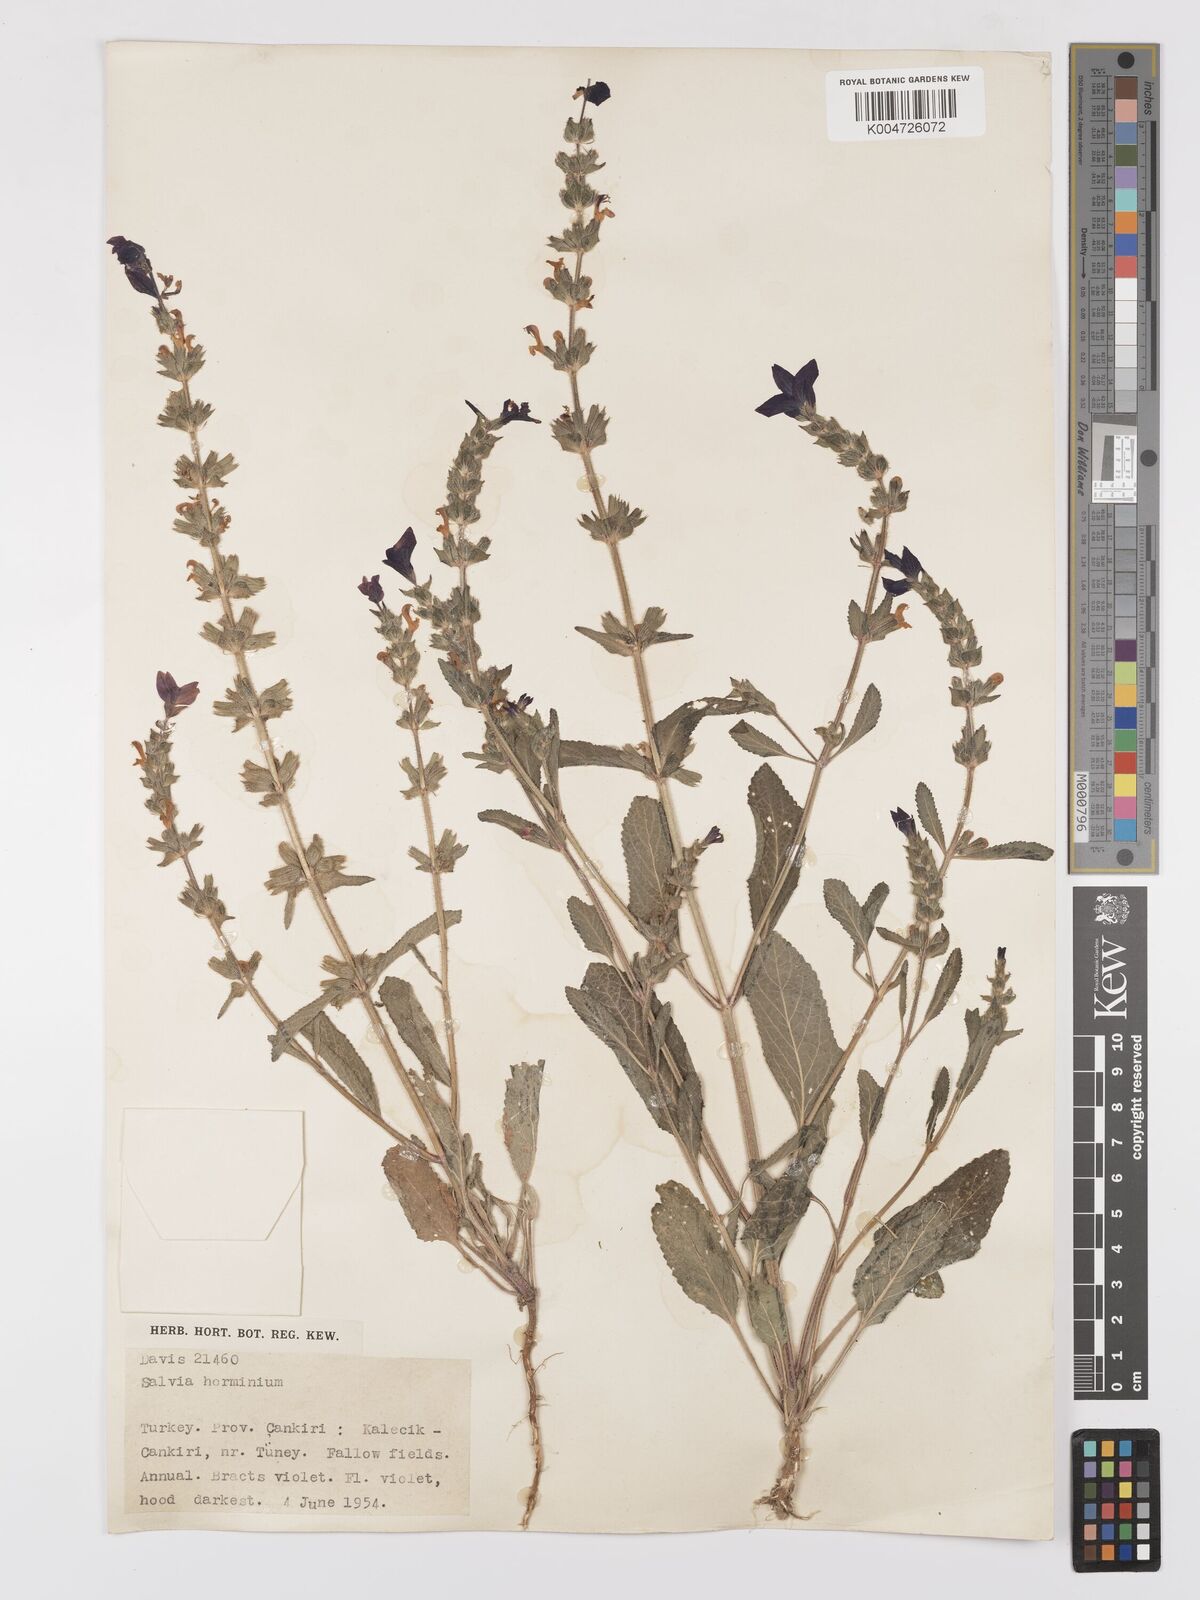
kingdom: Plantae
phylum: Tracheophyta
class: Magnoliopsida
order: Lamiales
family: Lamiaceae
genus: Salvia
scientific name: Salvia viridis
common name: Annual clary
